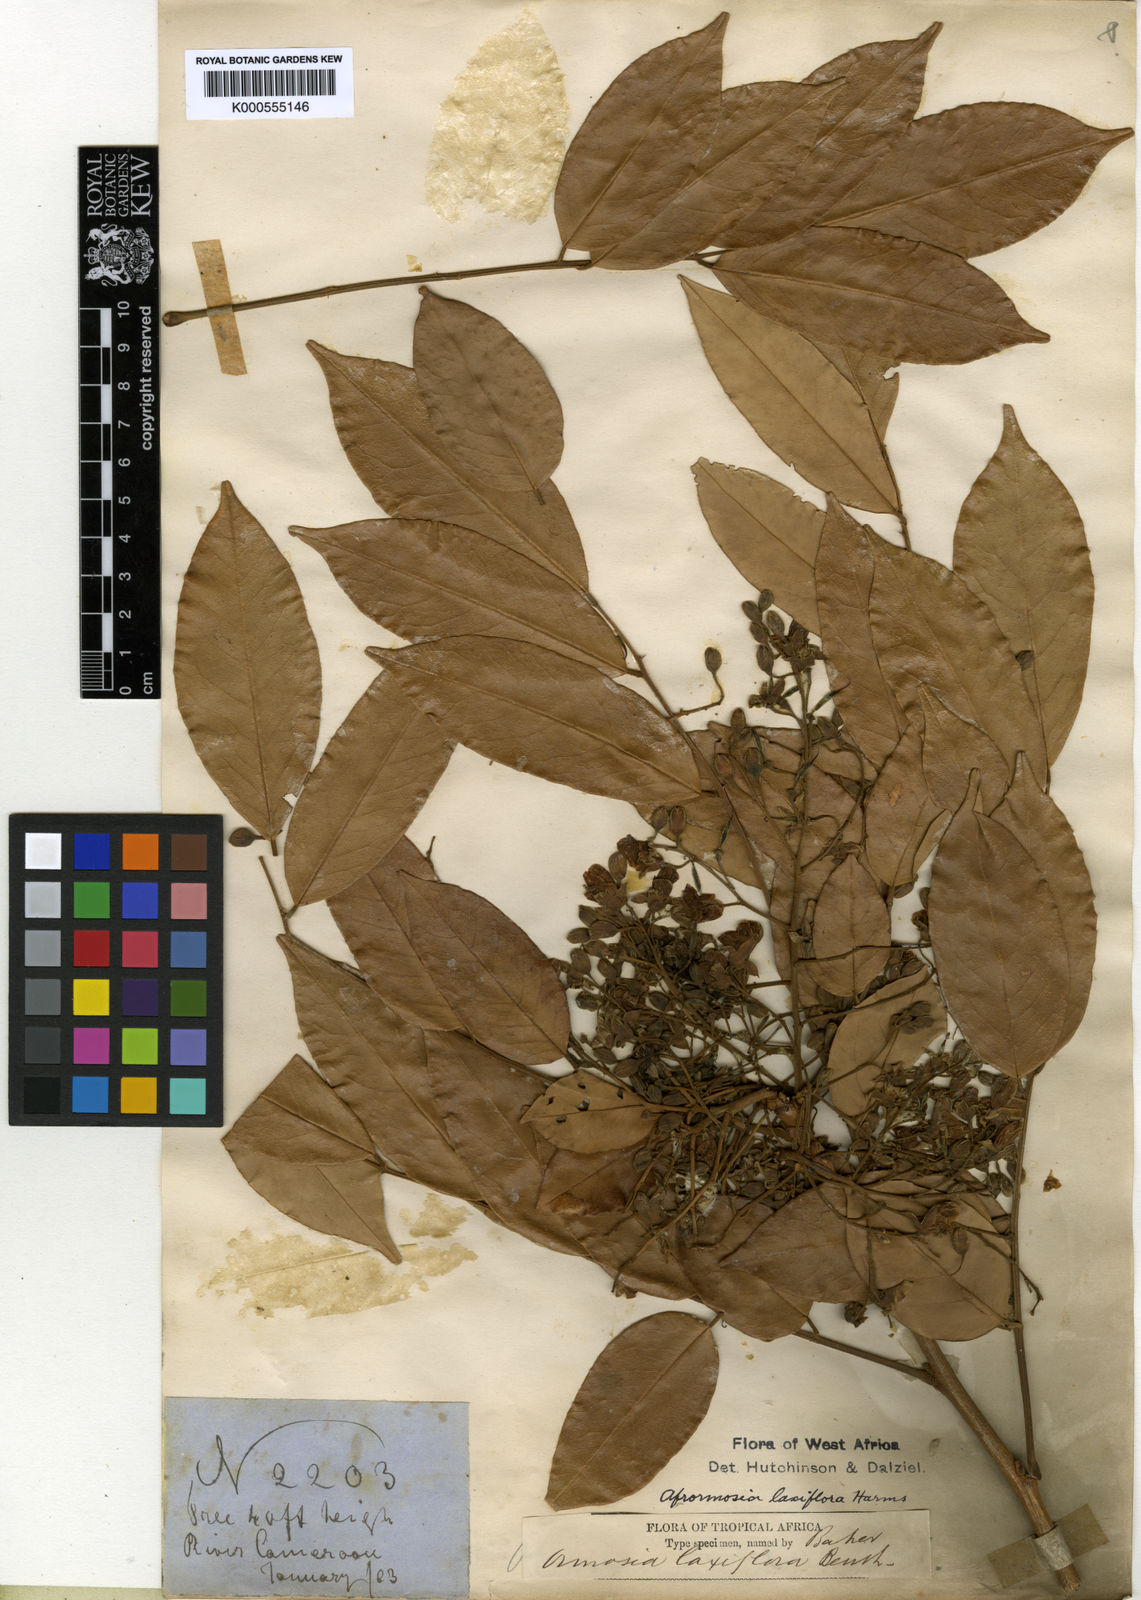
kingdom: Plantae
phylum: Tracheophyta
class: Magnoliopsida
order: Fabales
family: Fabaceae
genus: Pericopsis
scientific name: Pericopsis laxiflora
